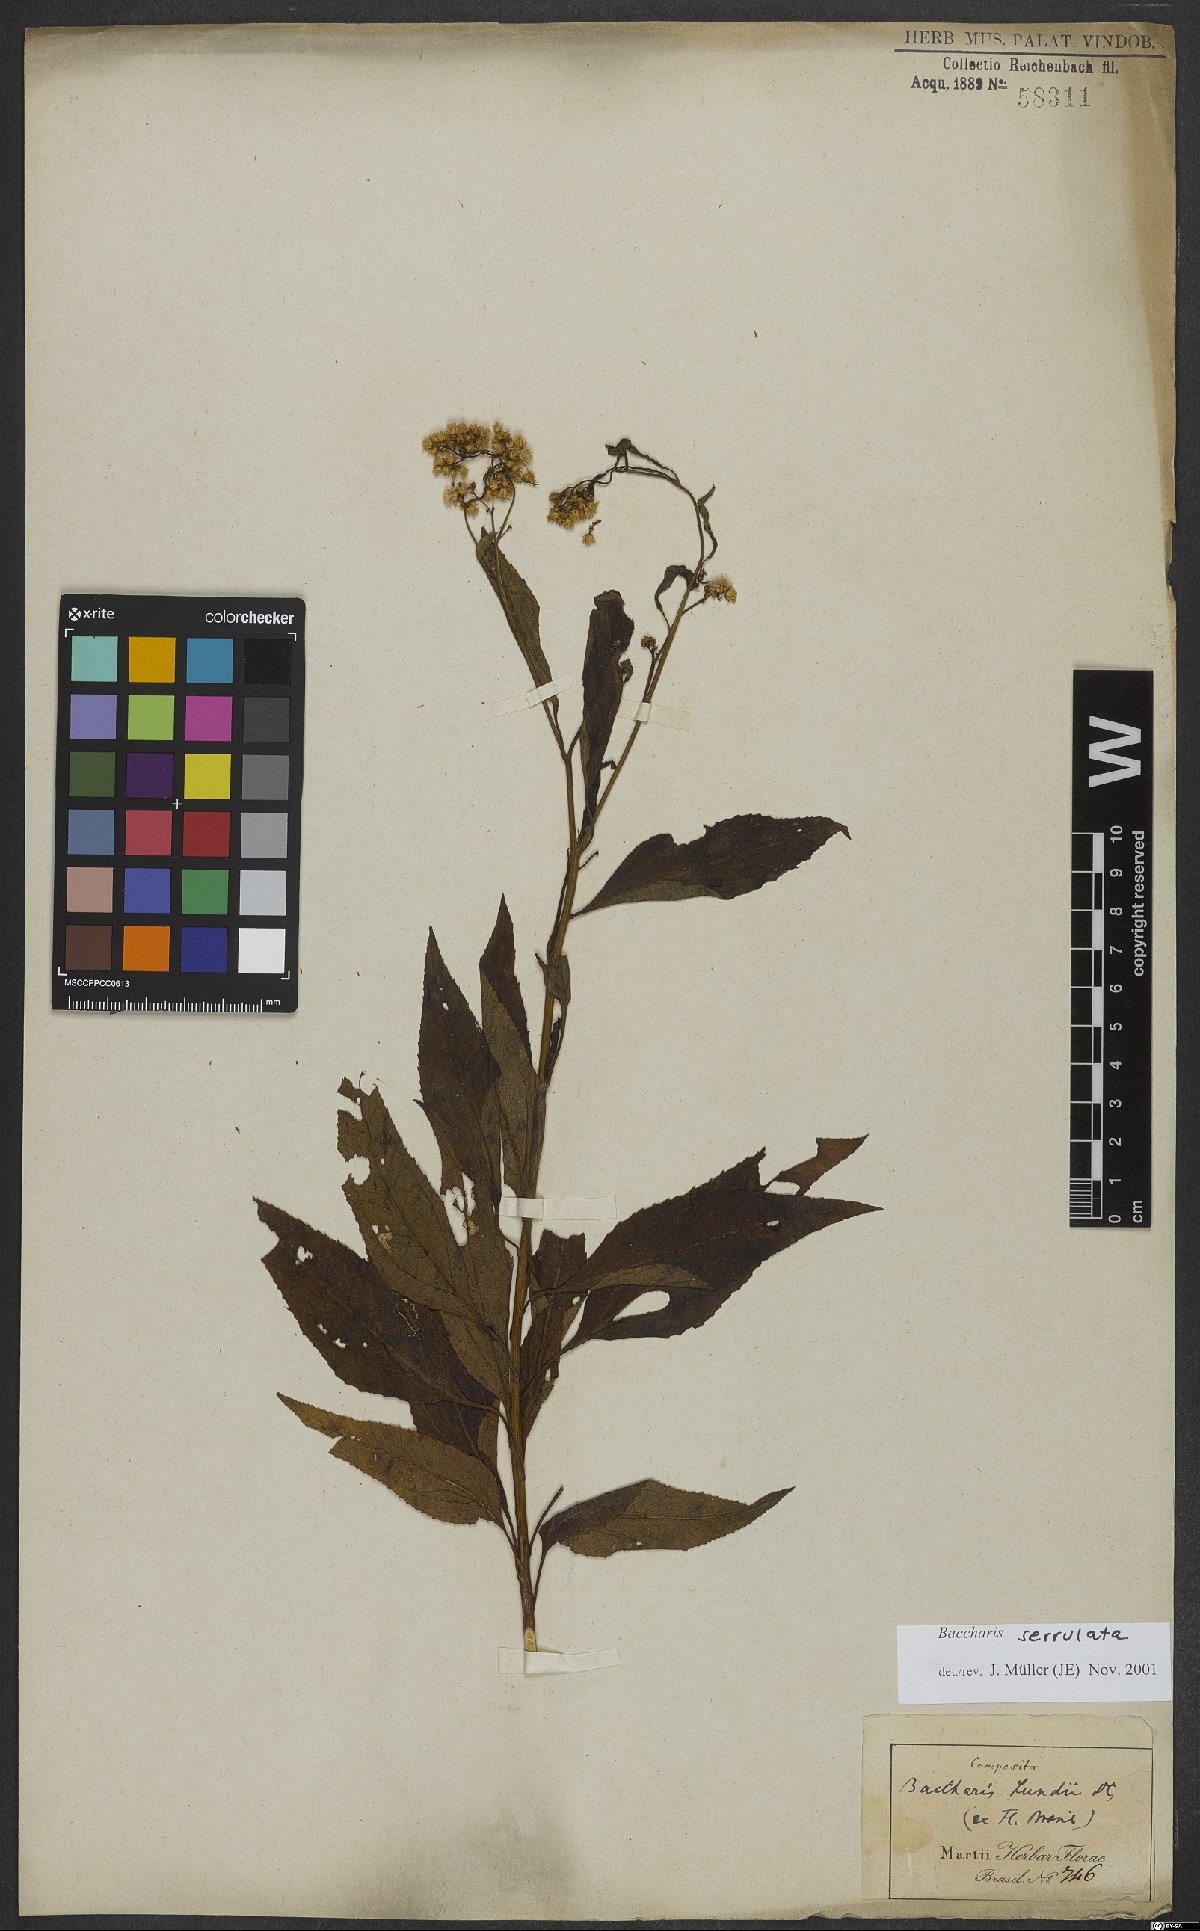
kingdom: Plantae
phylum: Tracheophyta
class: Magnoliopsida
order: Asterales
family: Asteraceae
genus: Archibaccharis
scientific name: Archibaccharis vulneraria
